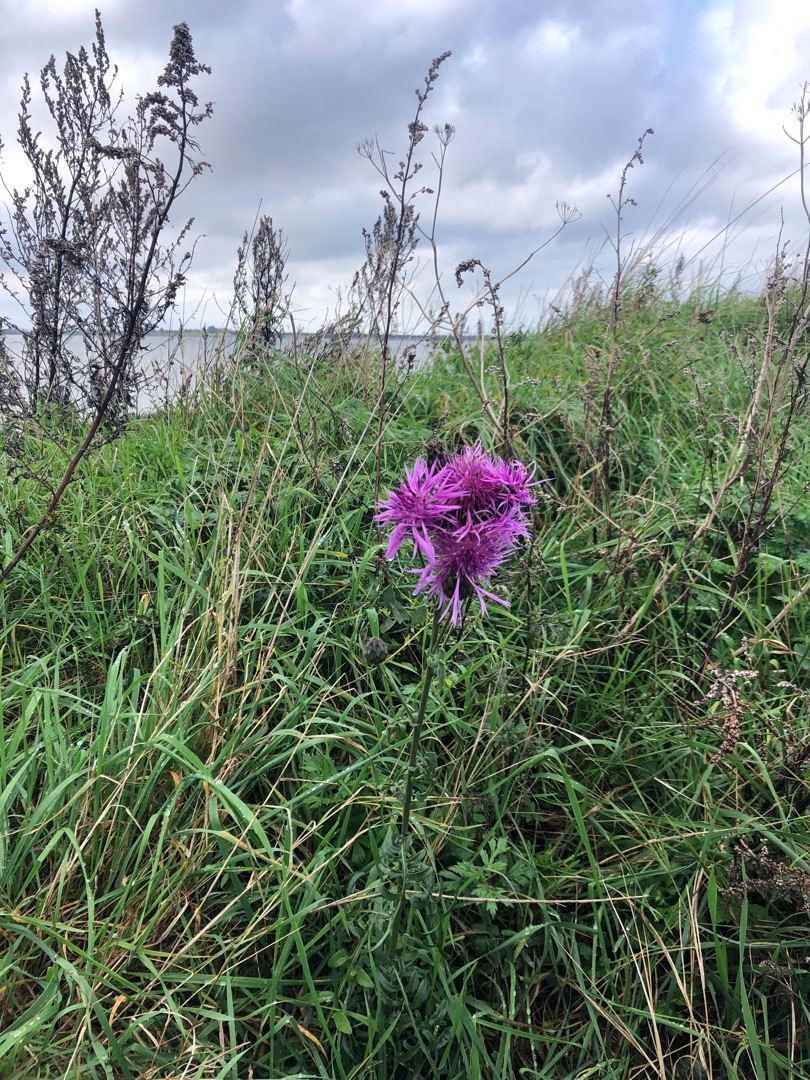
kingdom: Plantae
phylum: Tracheophyta
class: Magnoliopsida
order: Asterales
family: Asteraceae
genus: Centaurea
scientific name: Centaurea scabiosa
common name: Stor knopurt
